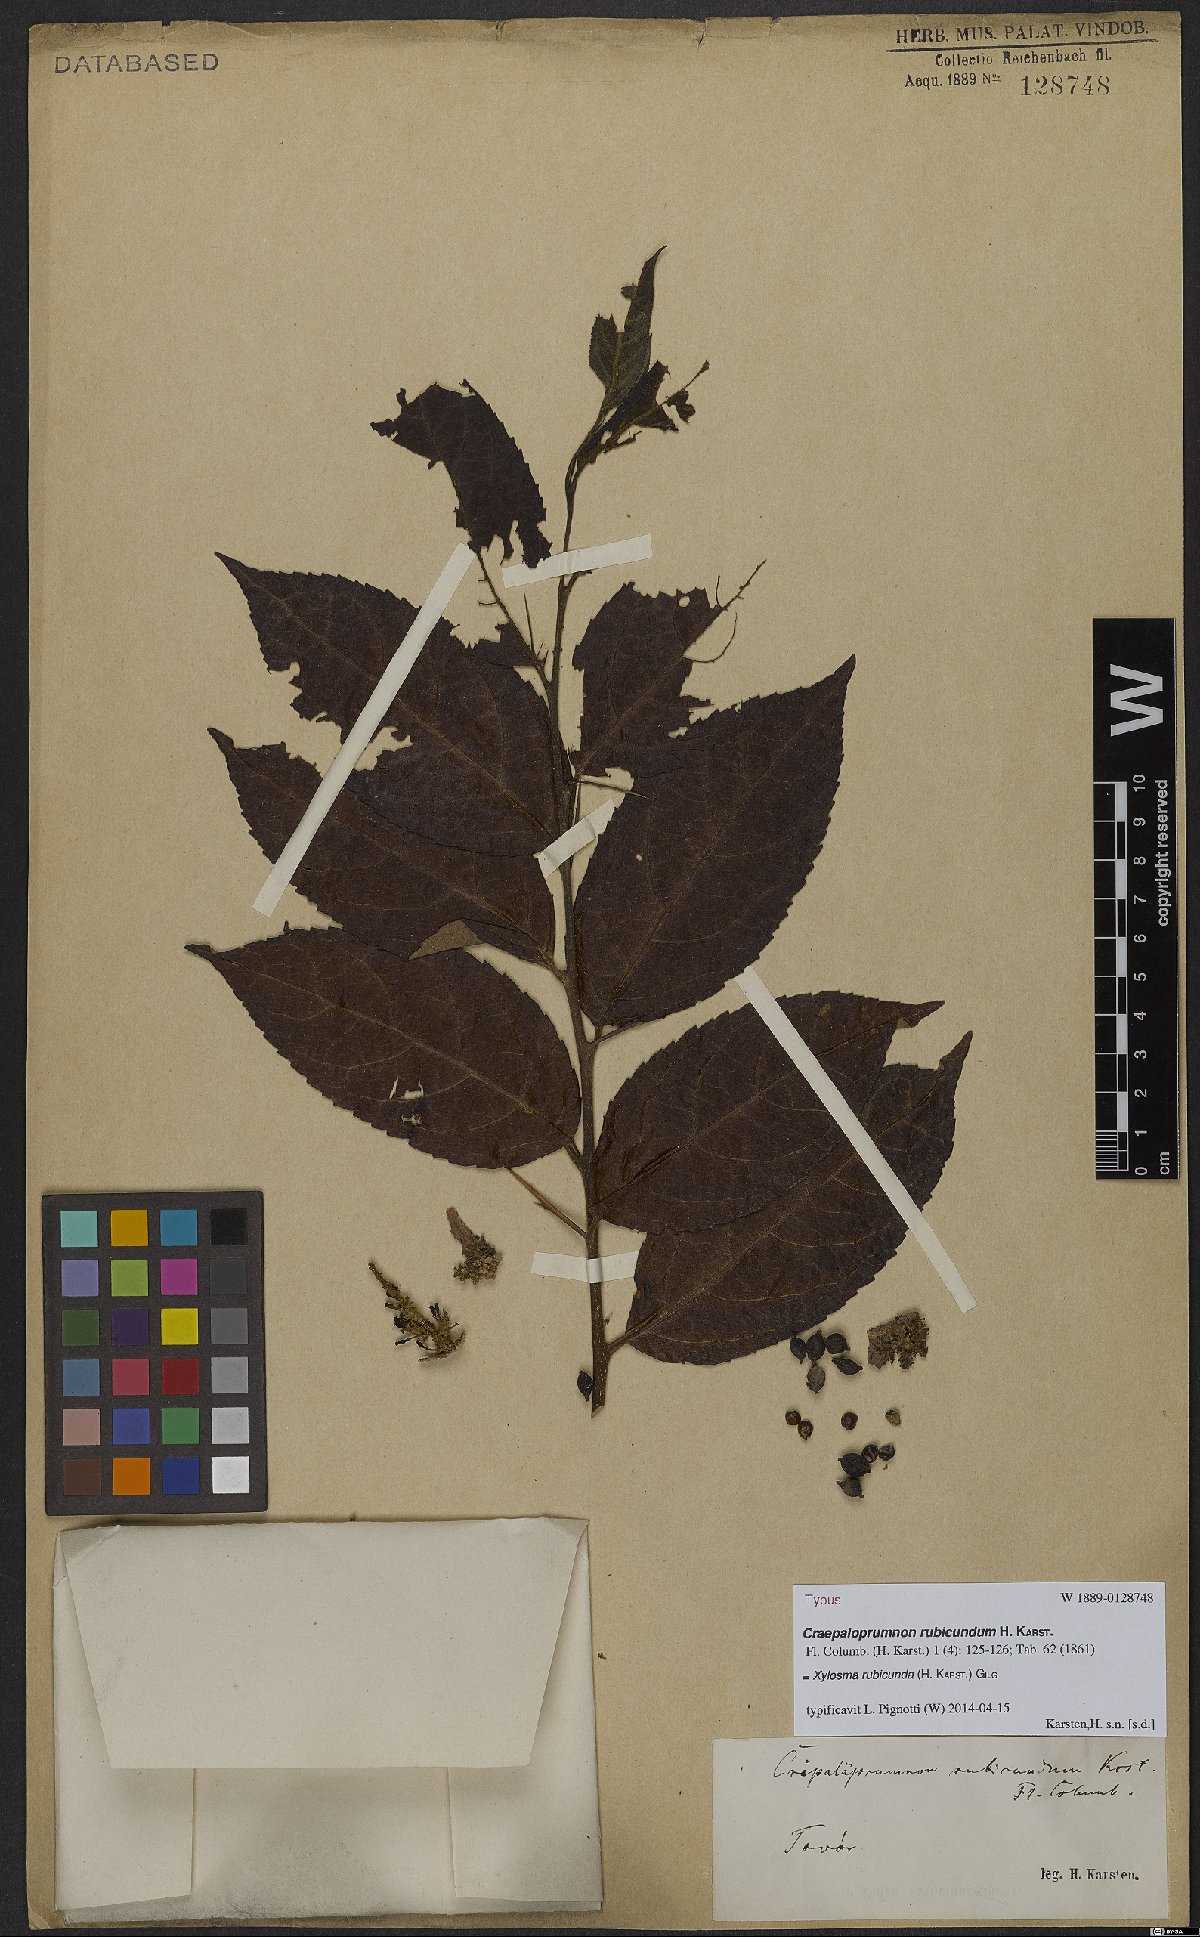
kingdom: Plantae
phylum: Tracheophyta
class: Magnoliopsida
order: Malpighiales
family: Salicaceae
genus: Xylosma
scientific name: Xylosma rubicundum
